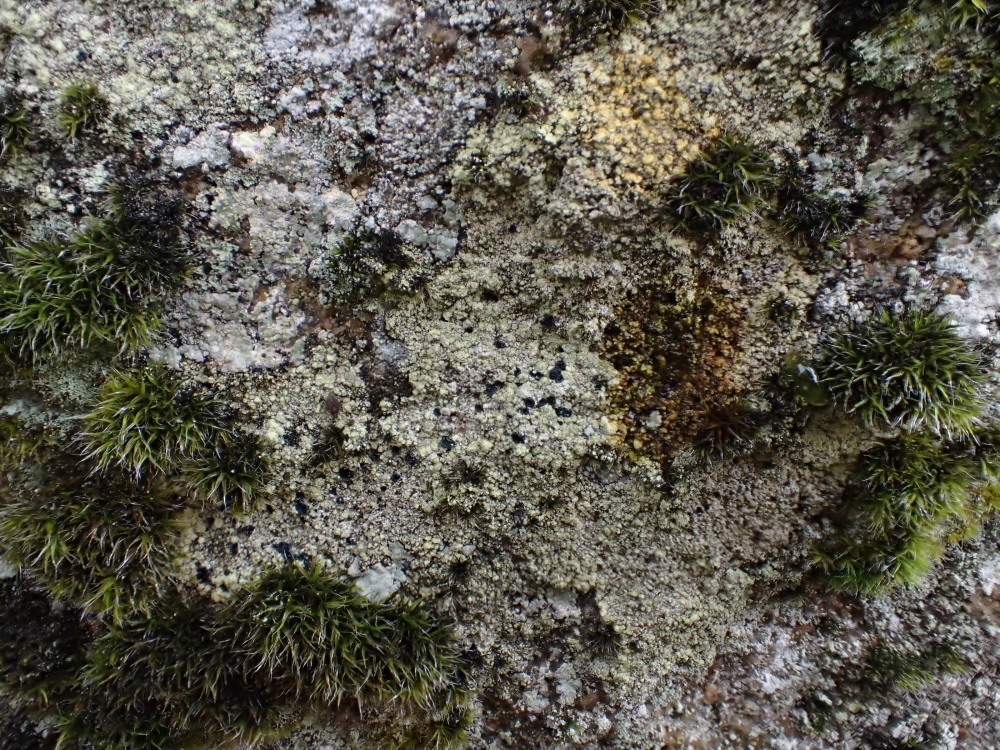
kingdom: Fungi
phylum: Ascomycota
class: Lecanoromycetes
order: Lecanorales
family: Lecanoraceae
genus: Lecidella
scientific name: Lecidella scabra
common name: skurvet skivelav
